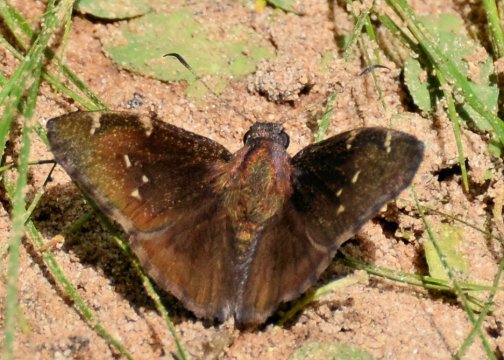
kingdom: Animalia
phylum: Arthropoda
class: Insecta
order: Lepidoptera
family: Hesperiidae
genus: Autochton
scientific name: Autochton
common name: Northern Cloudywing
